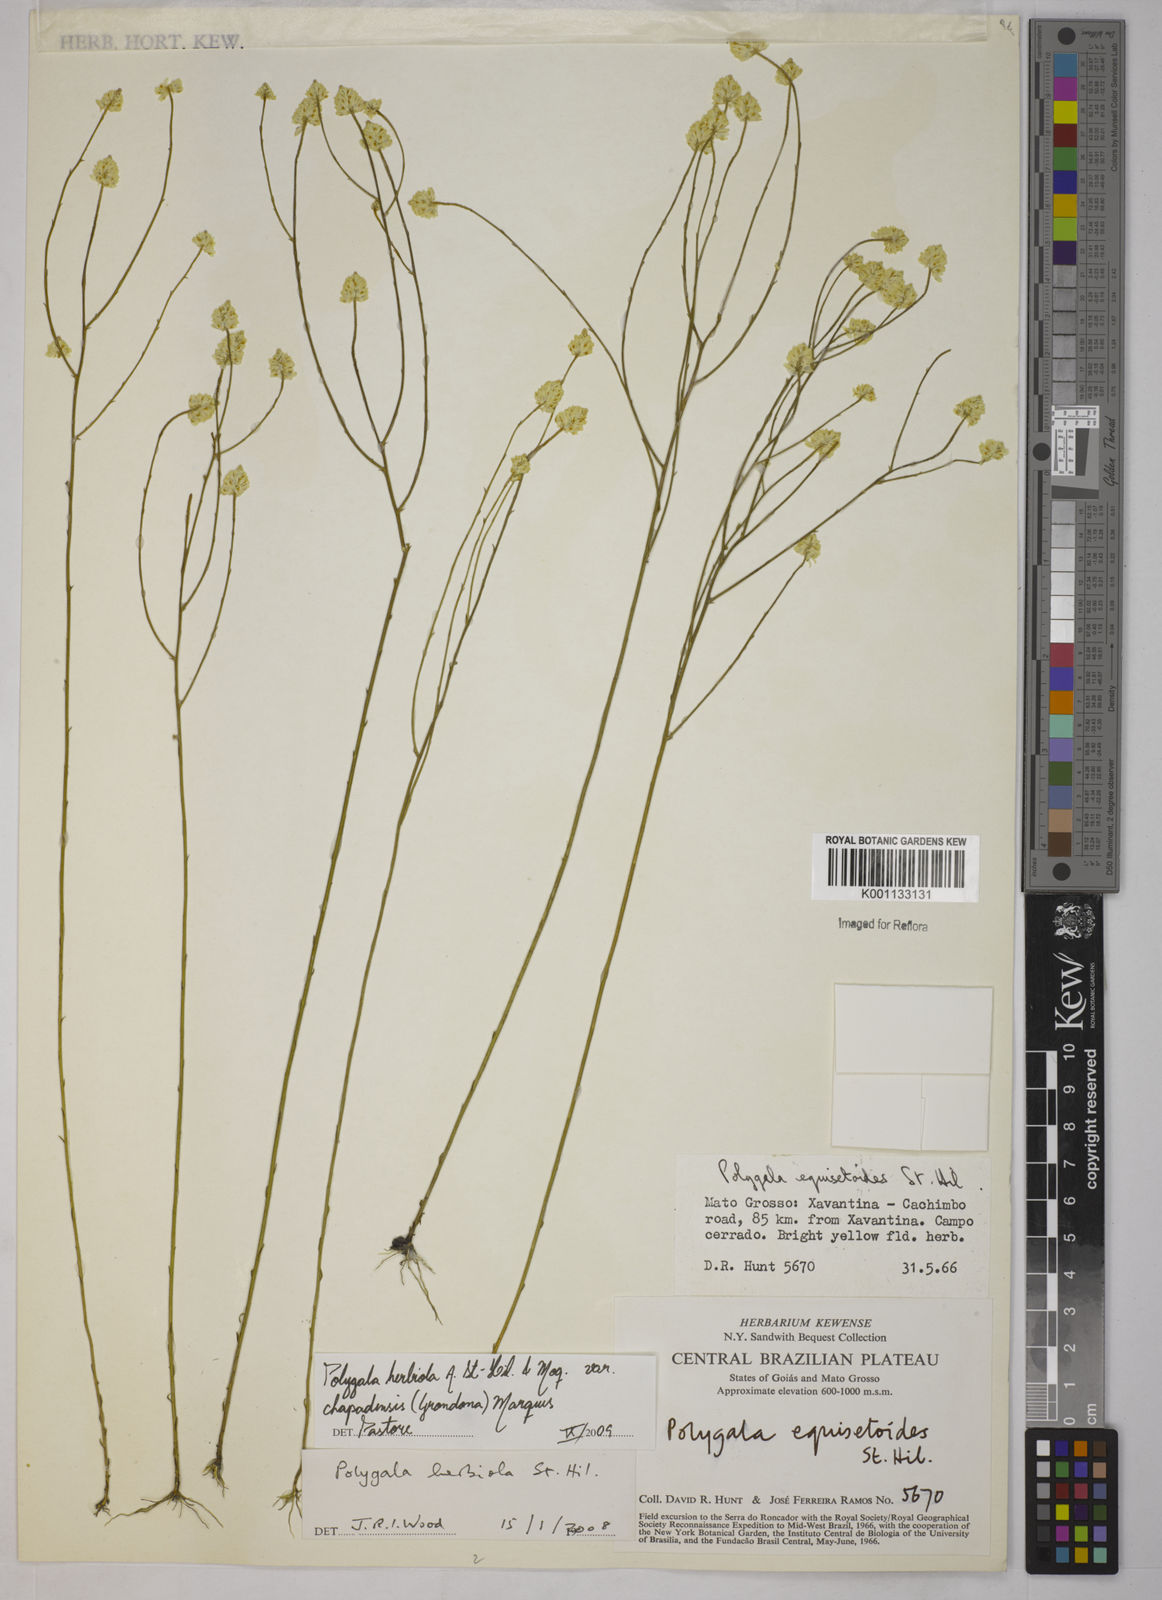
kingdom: Plantae
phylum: Tracheophyta
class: Magnoliopsida
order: Fabales
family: Polygalaceae
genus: Polygala
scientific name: Polygala herbiola
